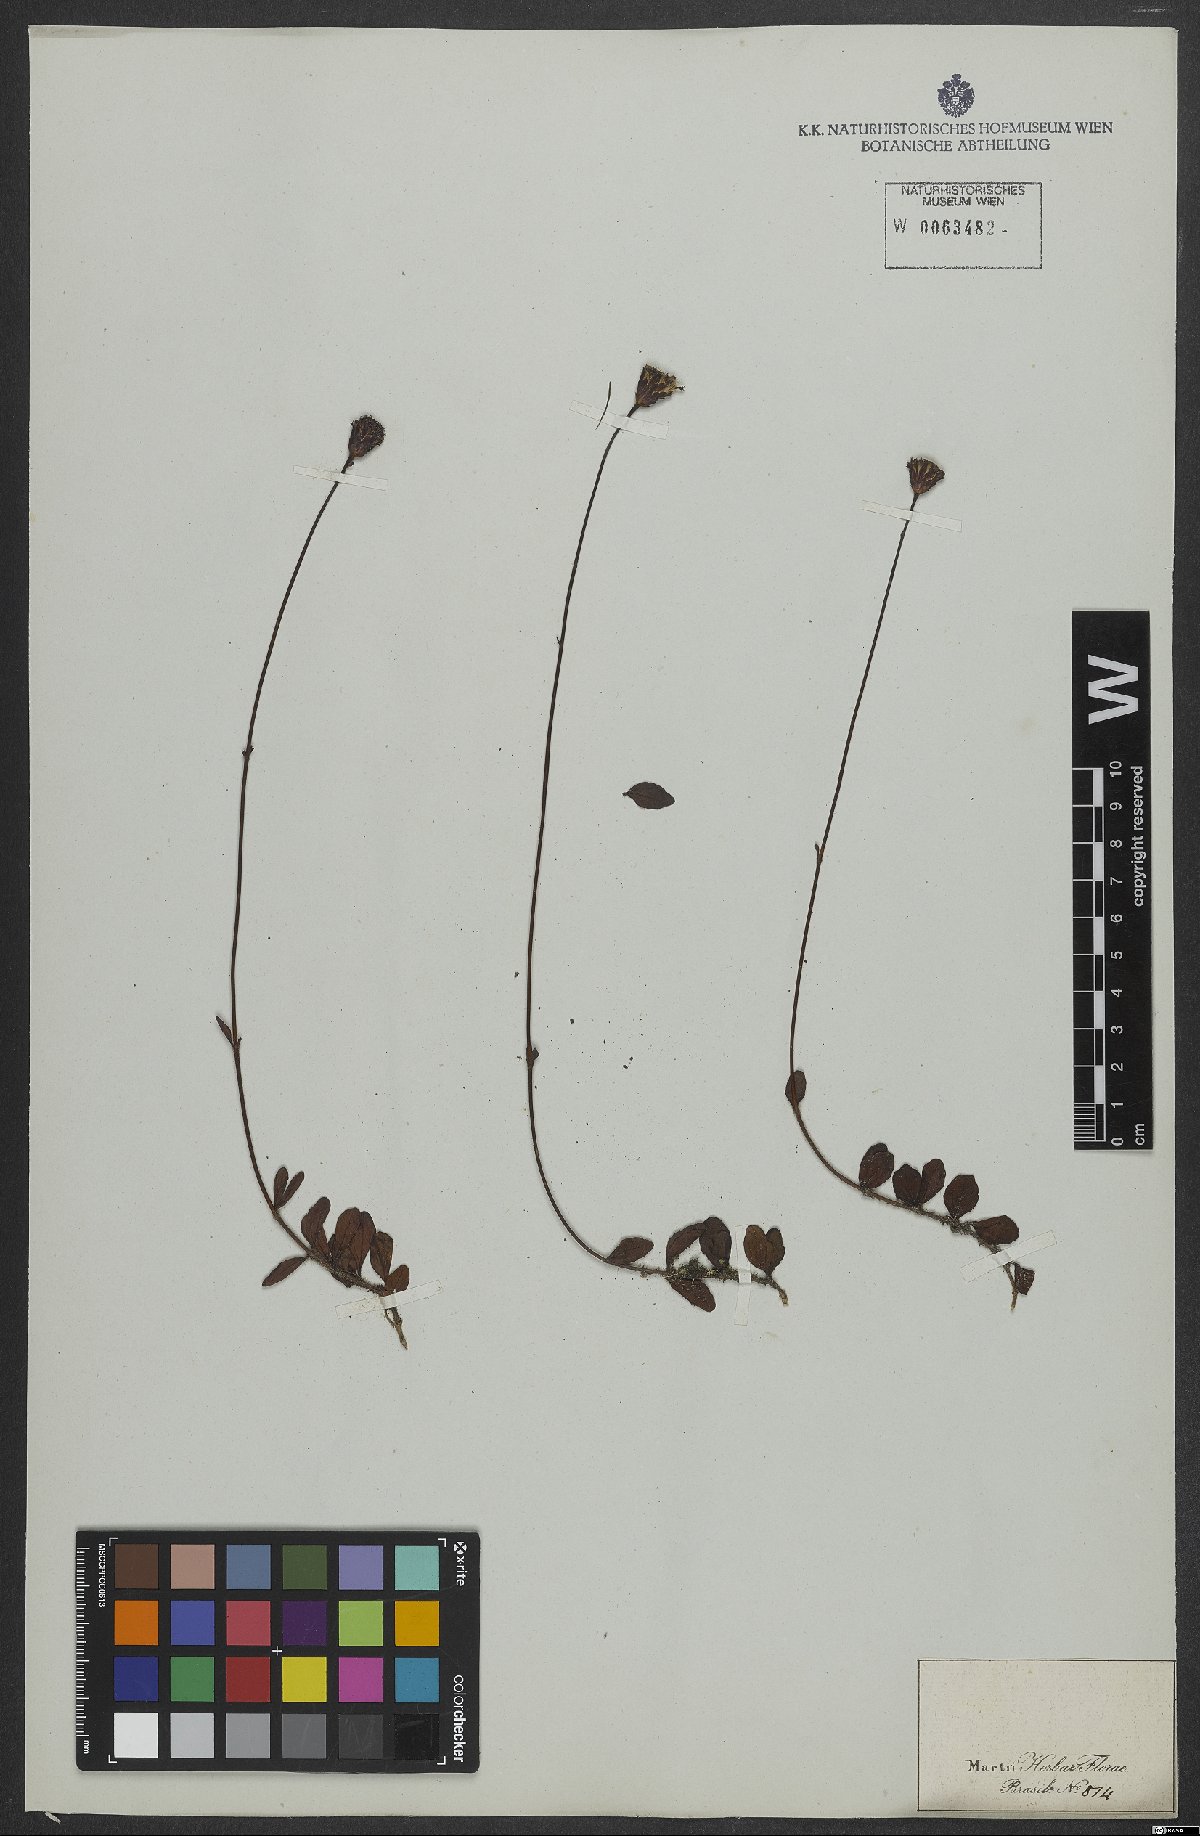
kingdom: Plantae
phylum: Tracheophyta
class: Magnoliopsida
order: Asterales
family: Asteraceae
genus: Porophyllum
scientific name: Porophyllum
